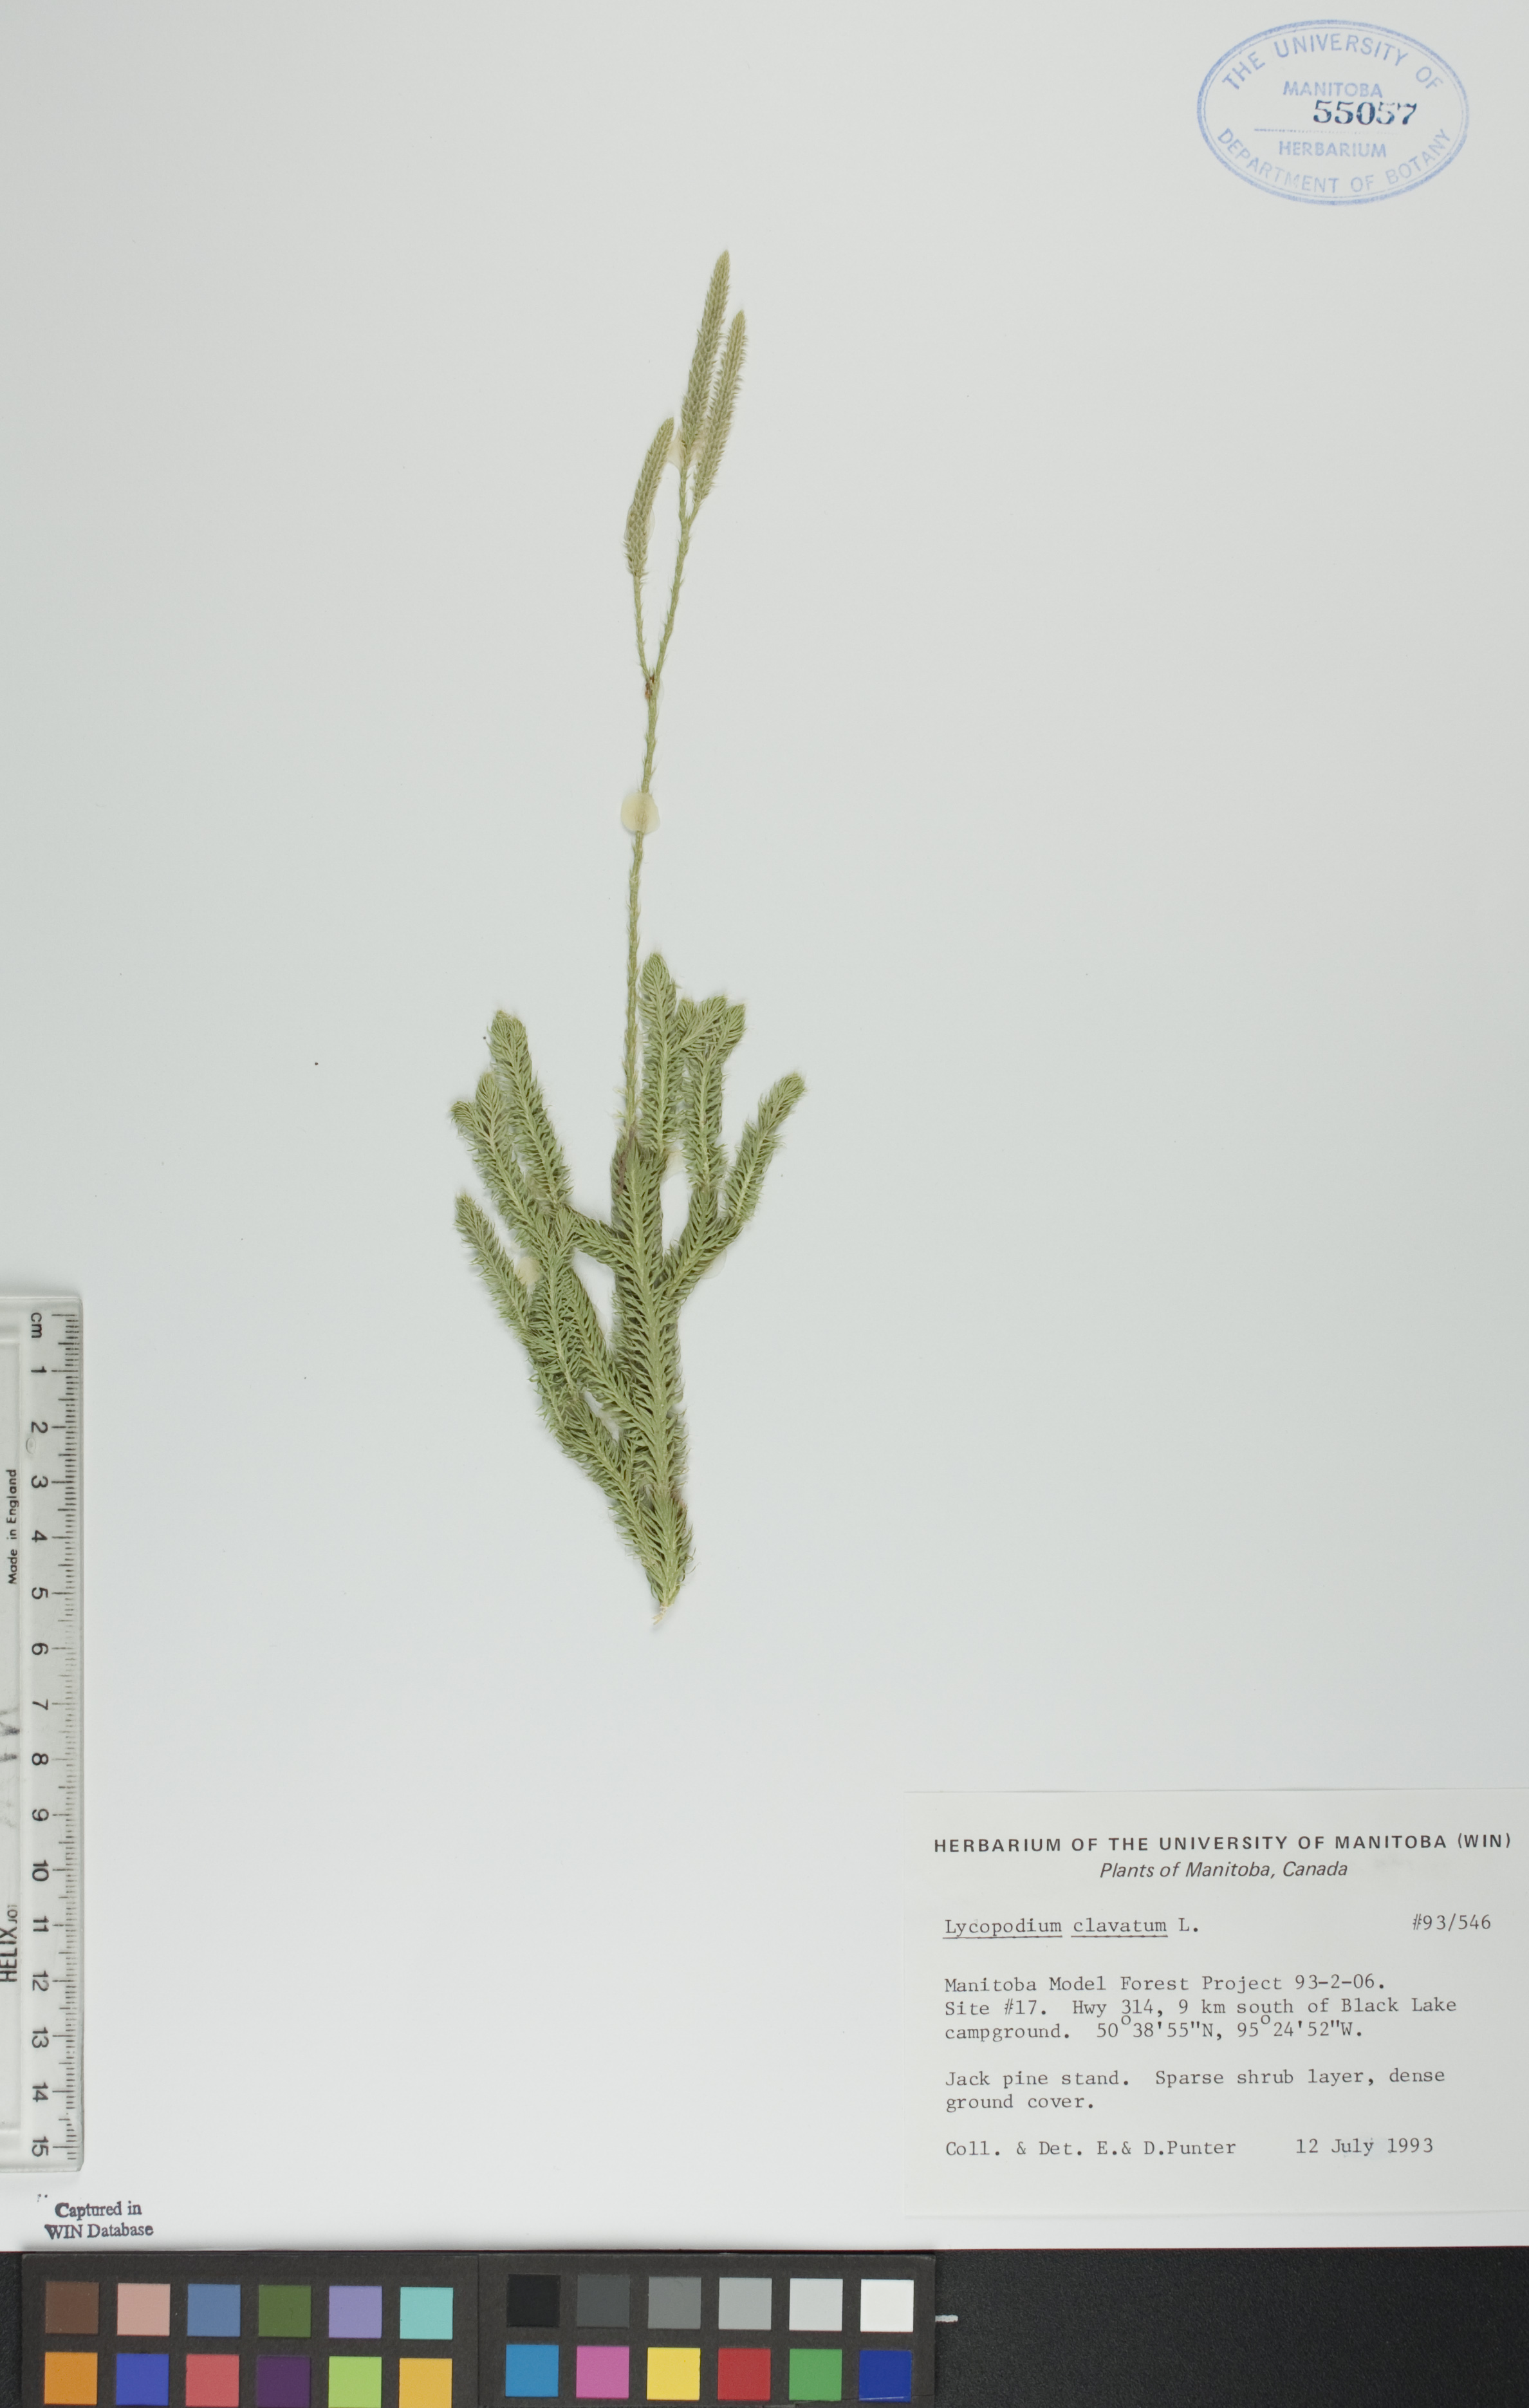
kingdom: Plantae
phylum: Tracheophyta
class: Lycopodiopsida
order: Lycopodiales
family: Lycopodiaceae
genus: Lycopodium
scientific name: Lycopodium clavatum
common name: Stag's-horn clubmoss
